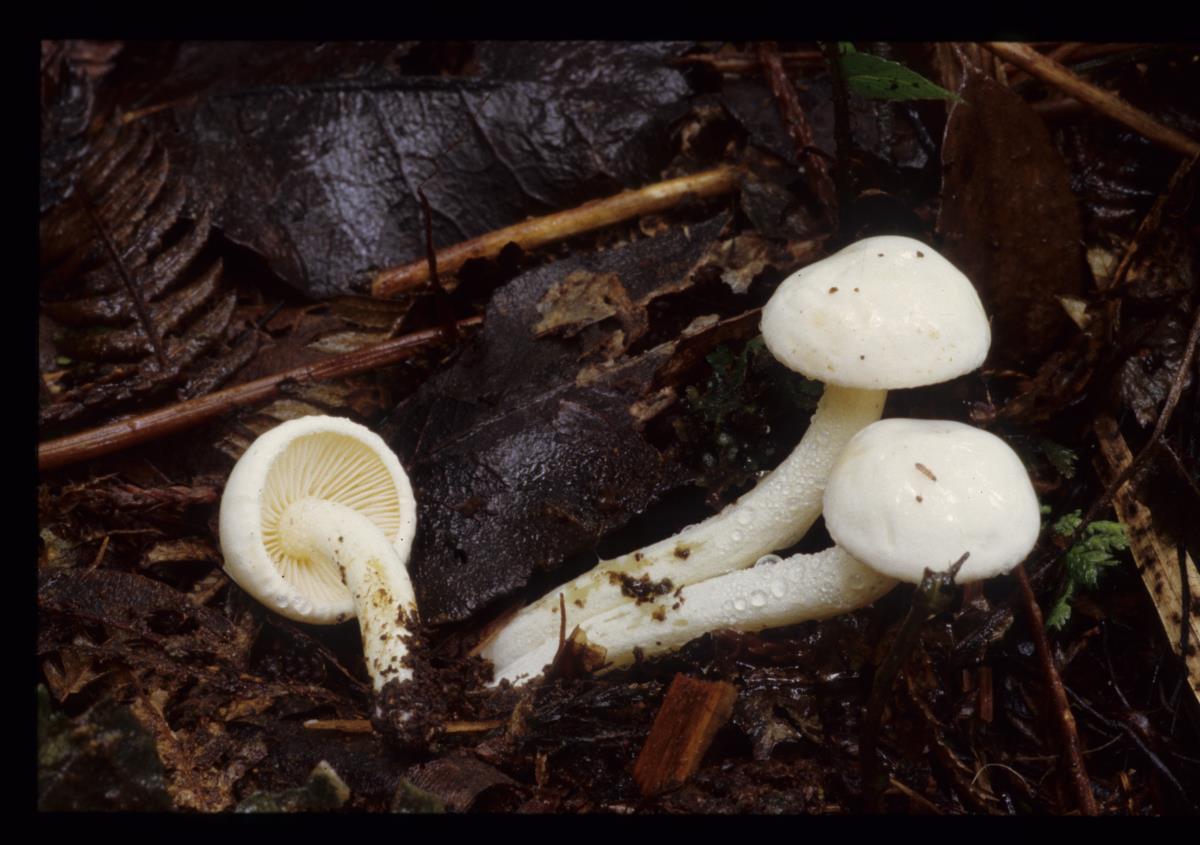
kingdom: Fungi
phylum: Basidiomycota
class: Agaricomycetes
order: Agaricales
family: Hygrophoraceae
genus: Hygrophorus
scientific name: Hygrophorus involutus
